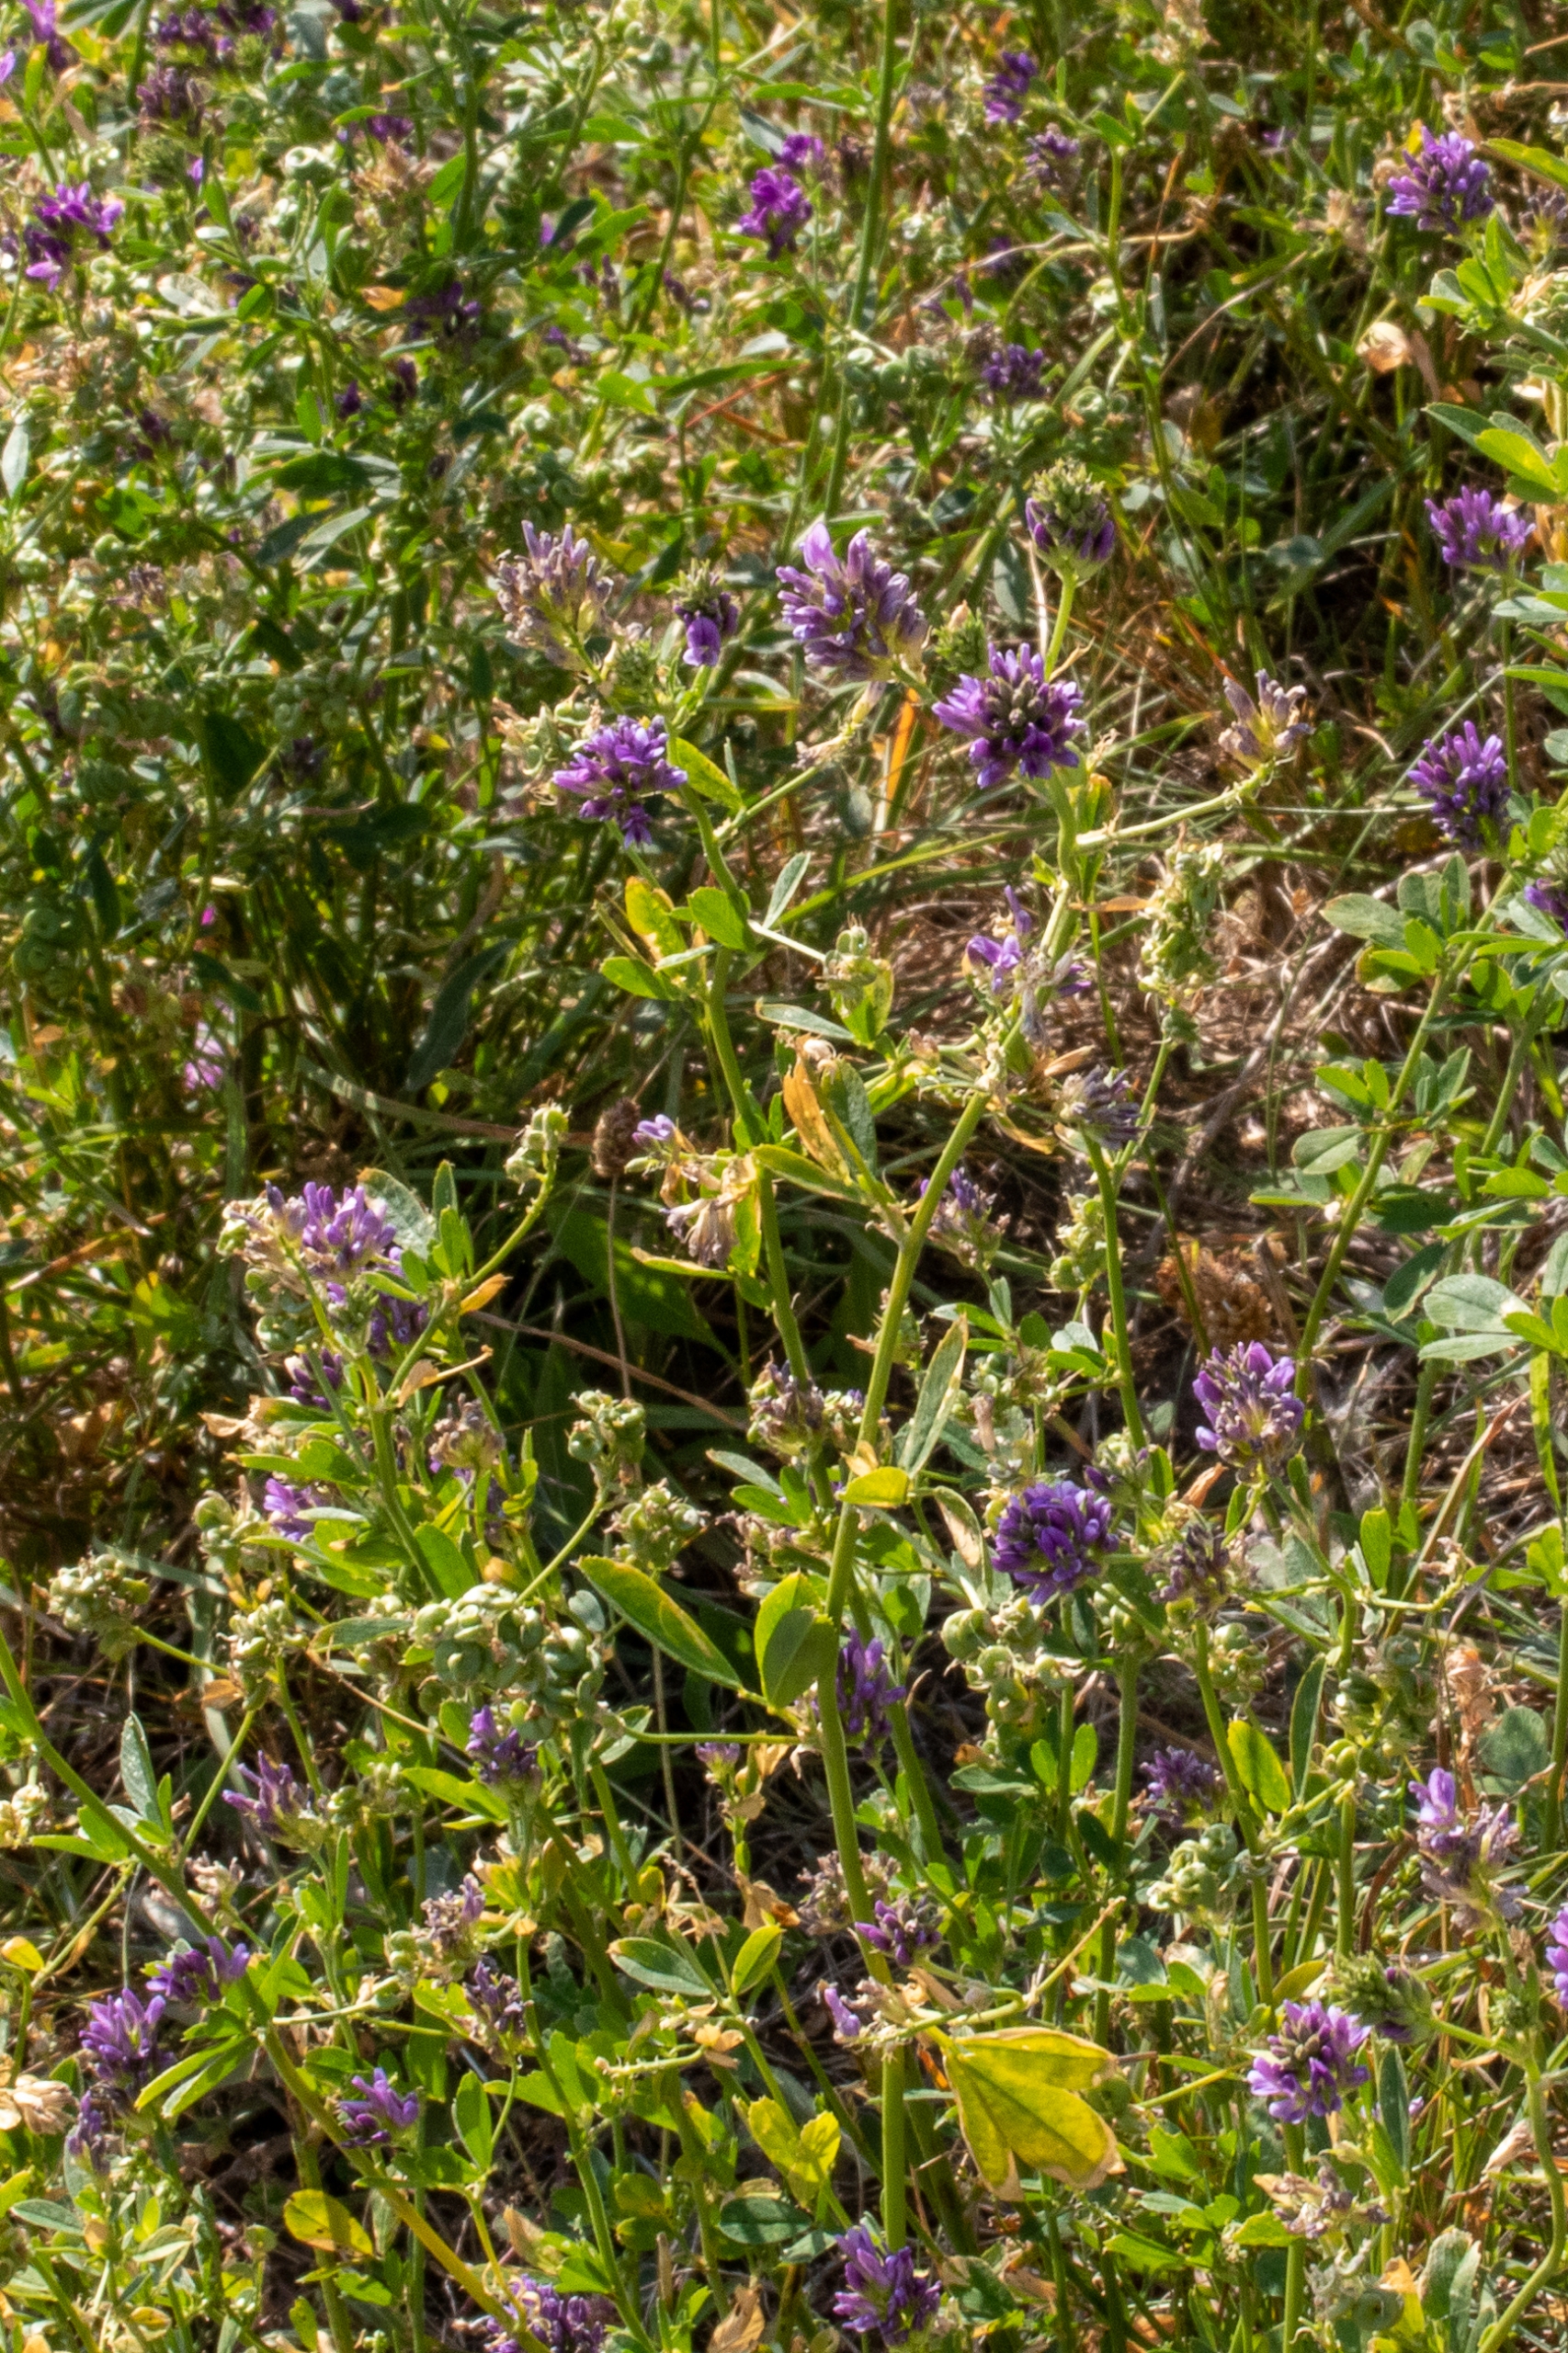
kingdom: Plantae
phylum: Tracheophyta
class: Magnoliopsida
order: Fabales
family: Fabaceae
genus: Medicago
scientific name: Medicago sativa
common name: Lucerne
